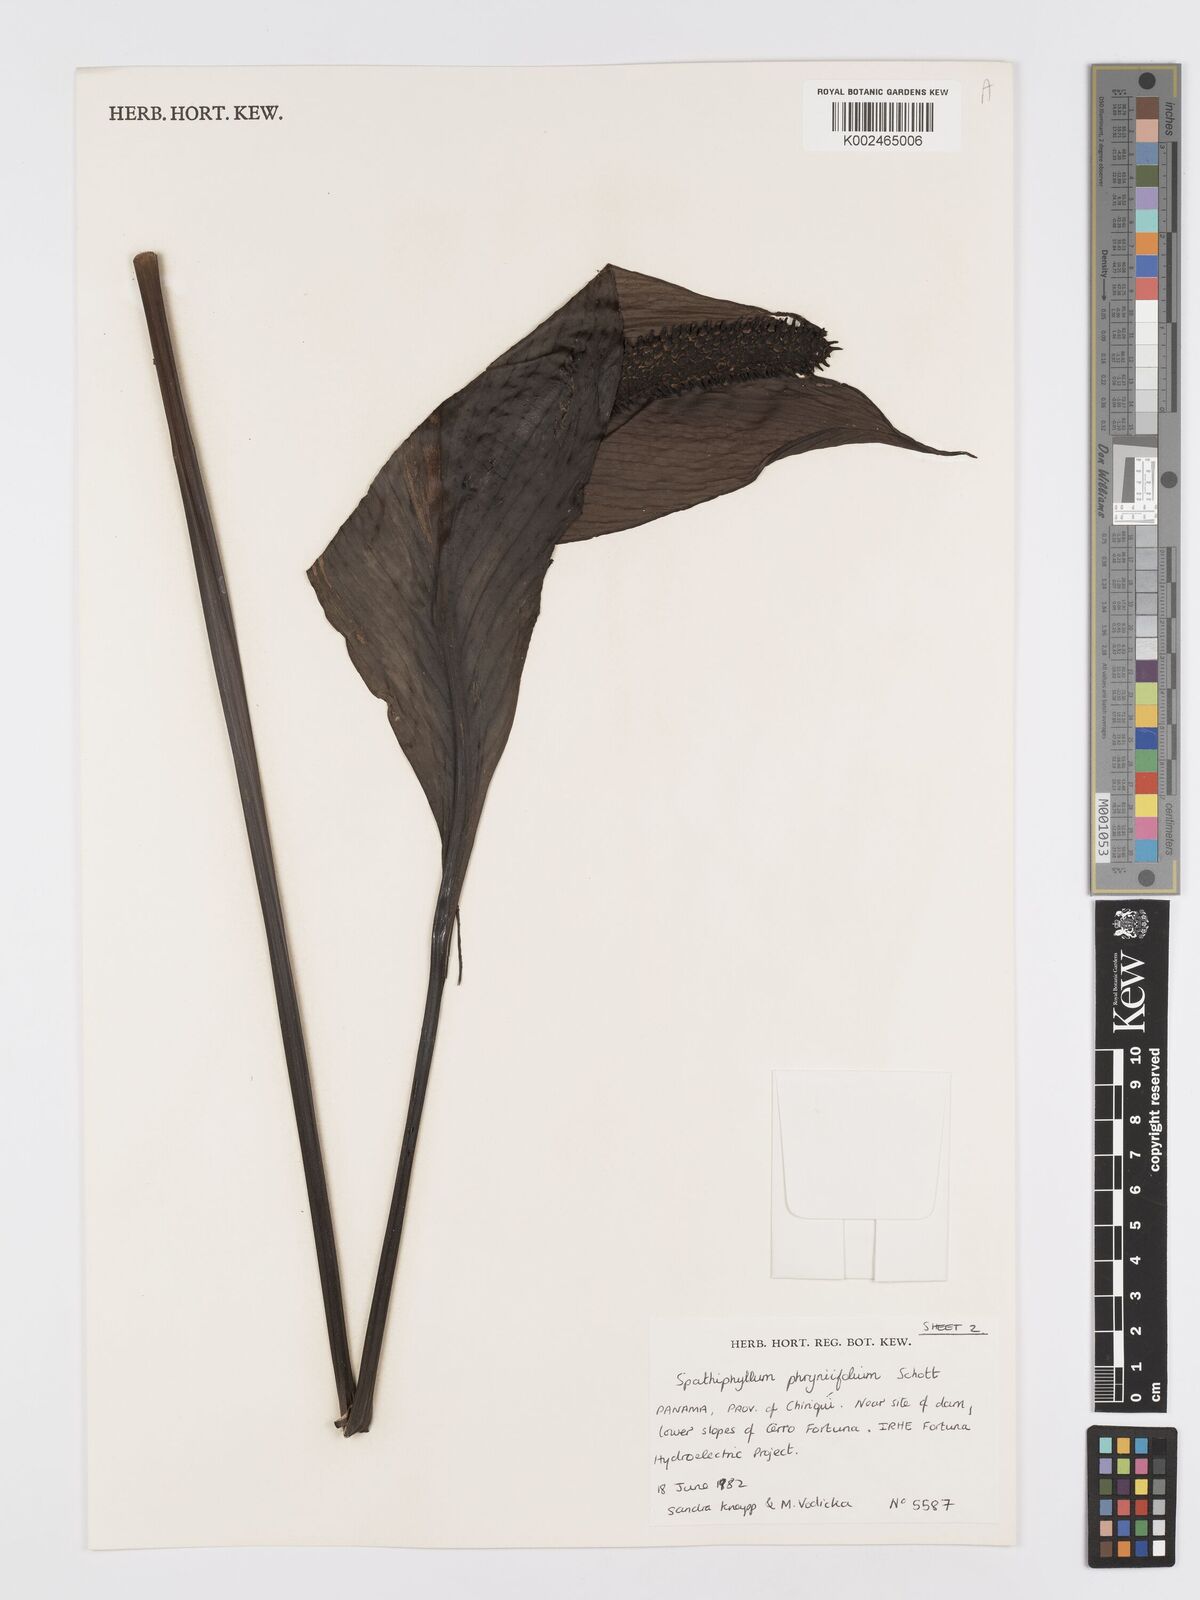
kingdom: Plantae
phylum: Tracheophyta
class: Liliopsida
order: Alismatales
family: Araceae
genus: Spathiphyllum
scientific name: Spathiphyllum phryniifolium
